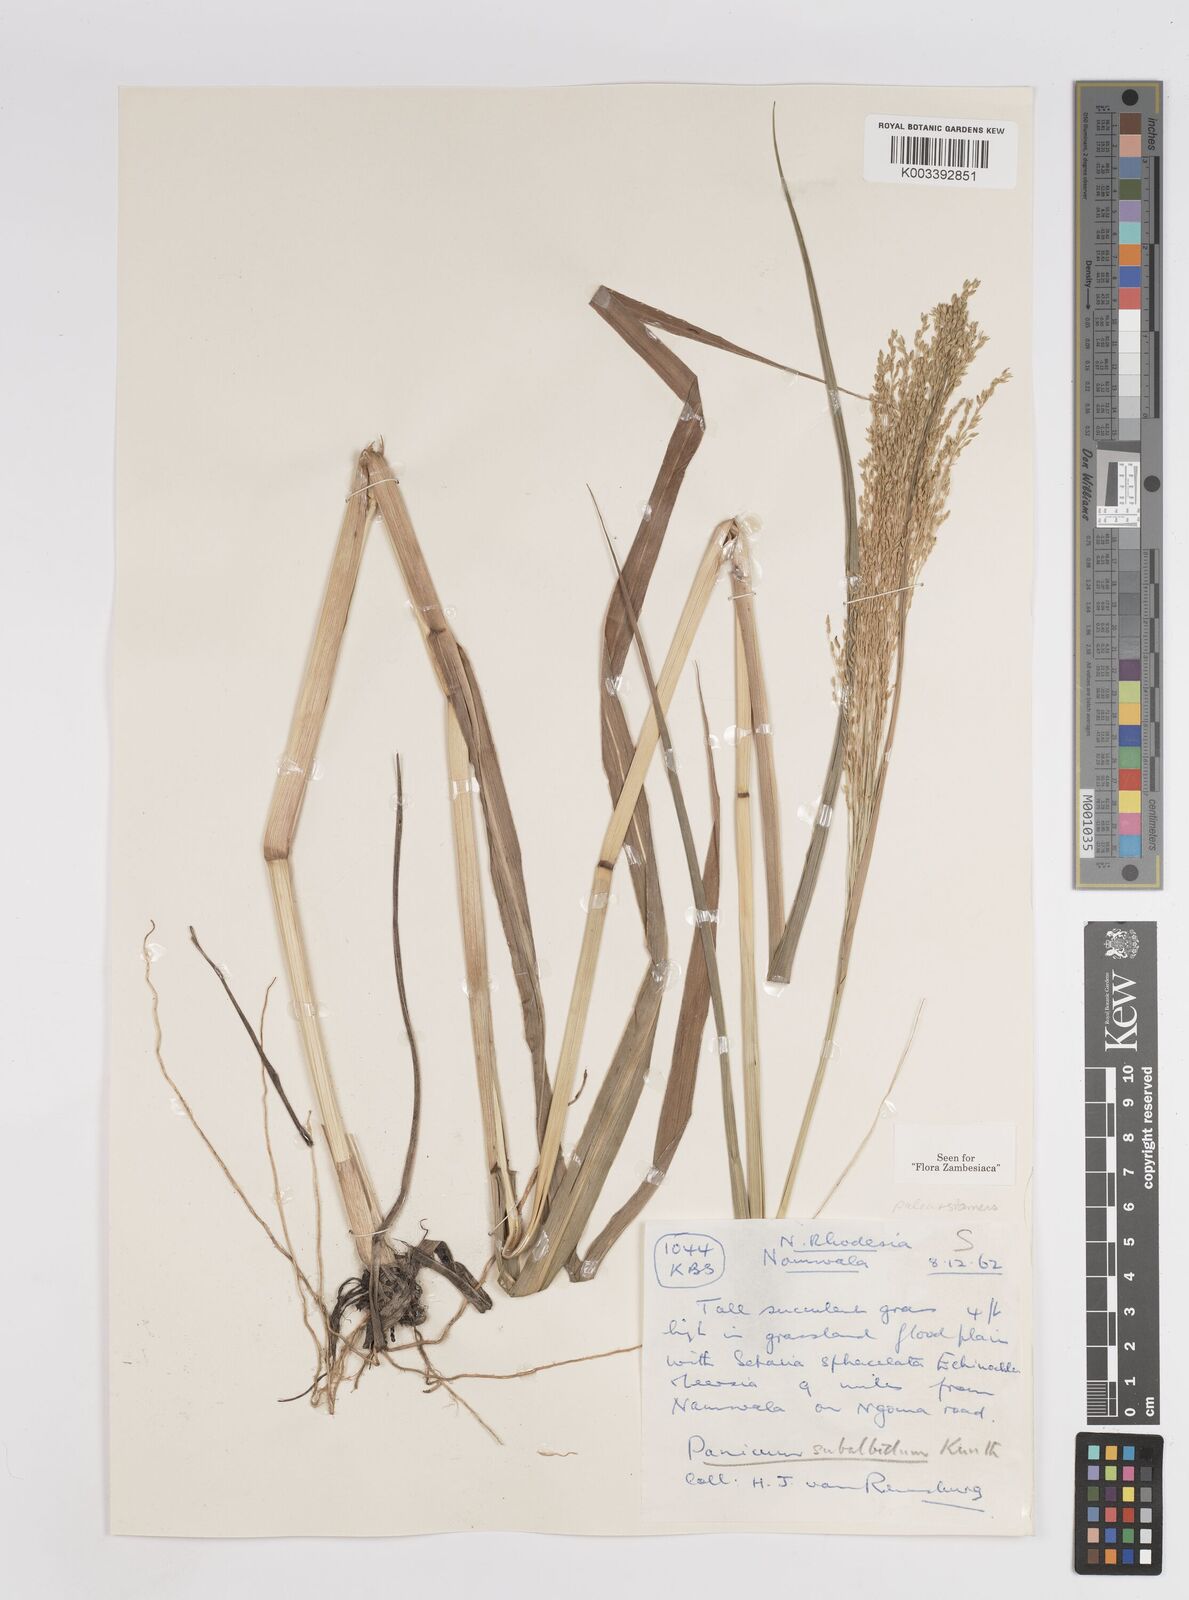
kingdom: Plantae
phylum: Tracheophyta
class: Liliopsida
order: Poales
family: Poaceae
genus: Panicum
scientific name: Panicum subalbidum
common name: Elbow buffalo grass
